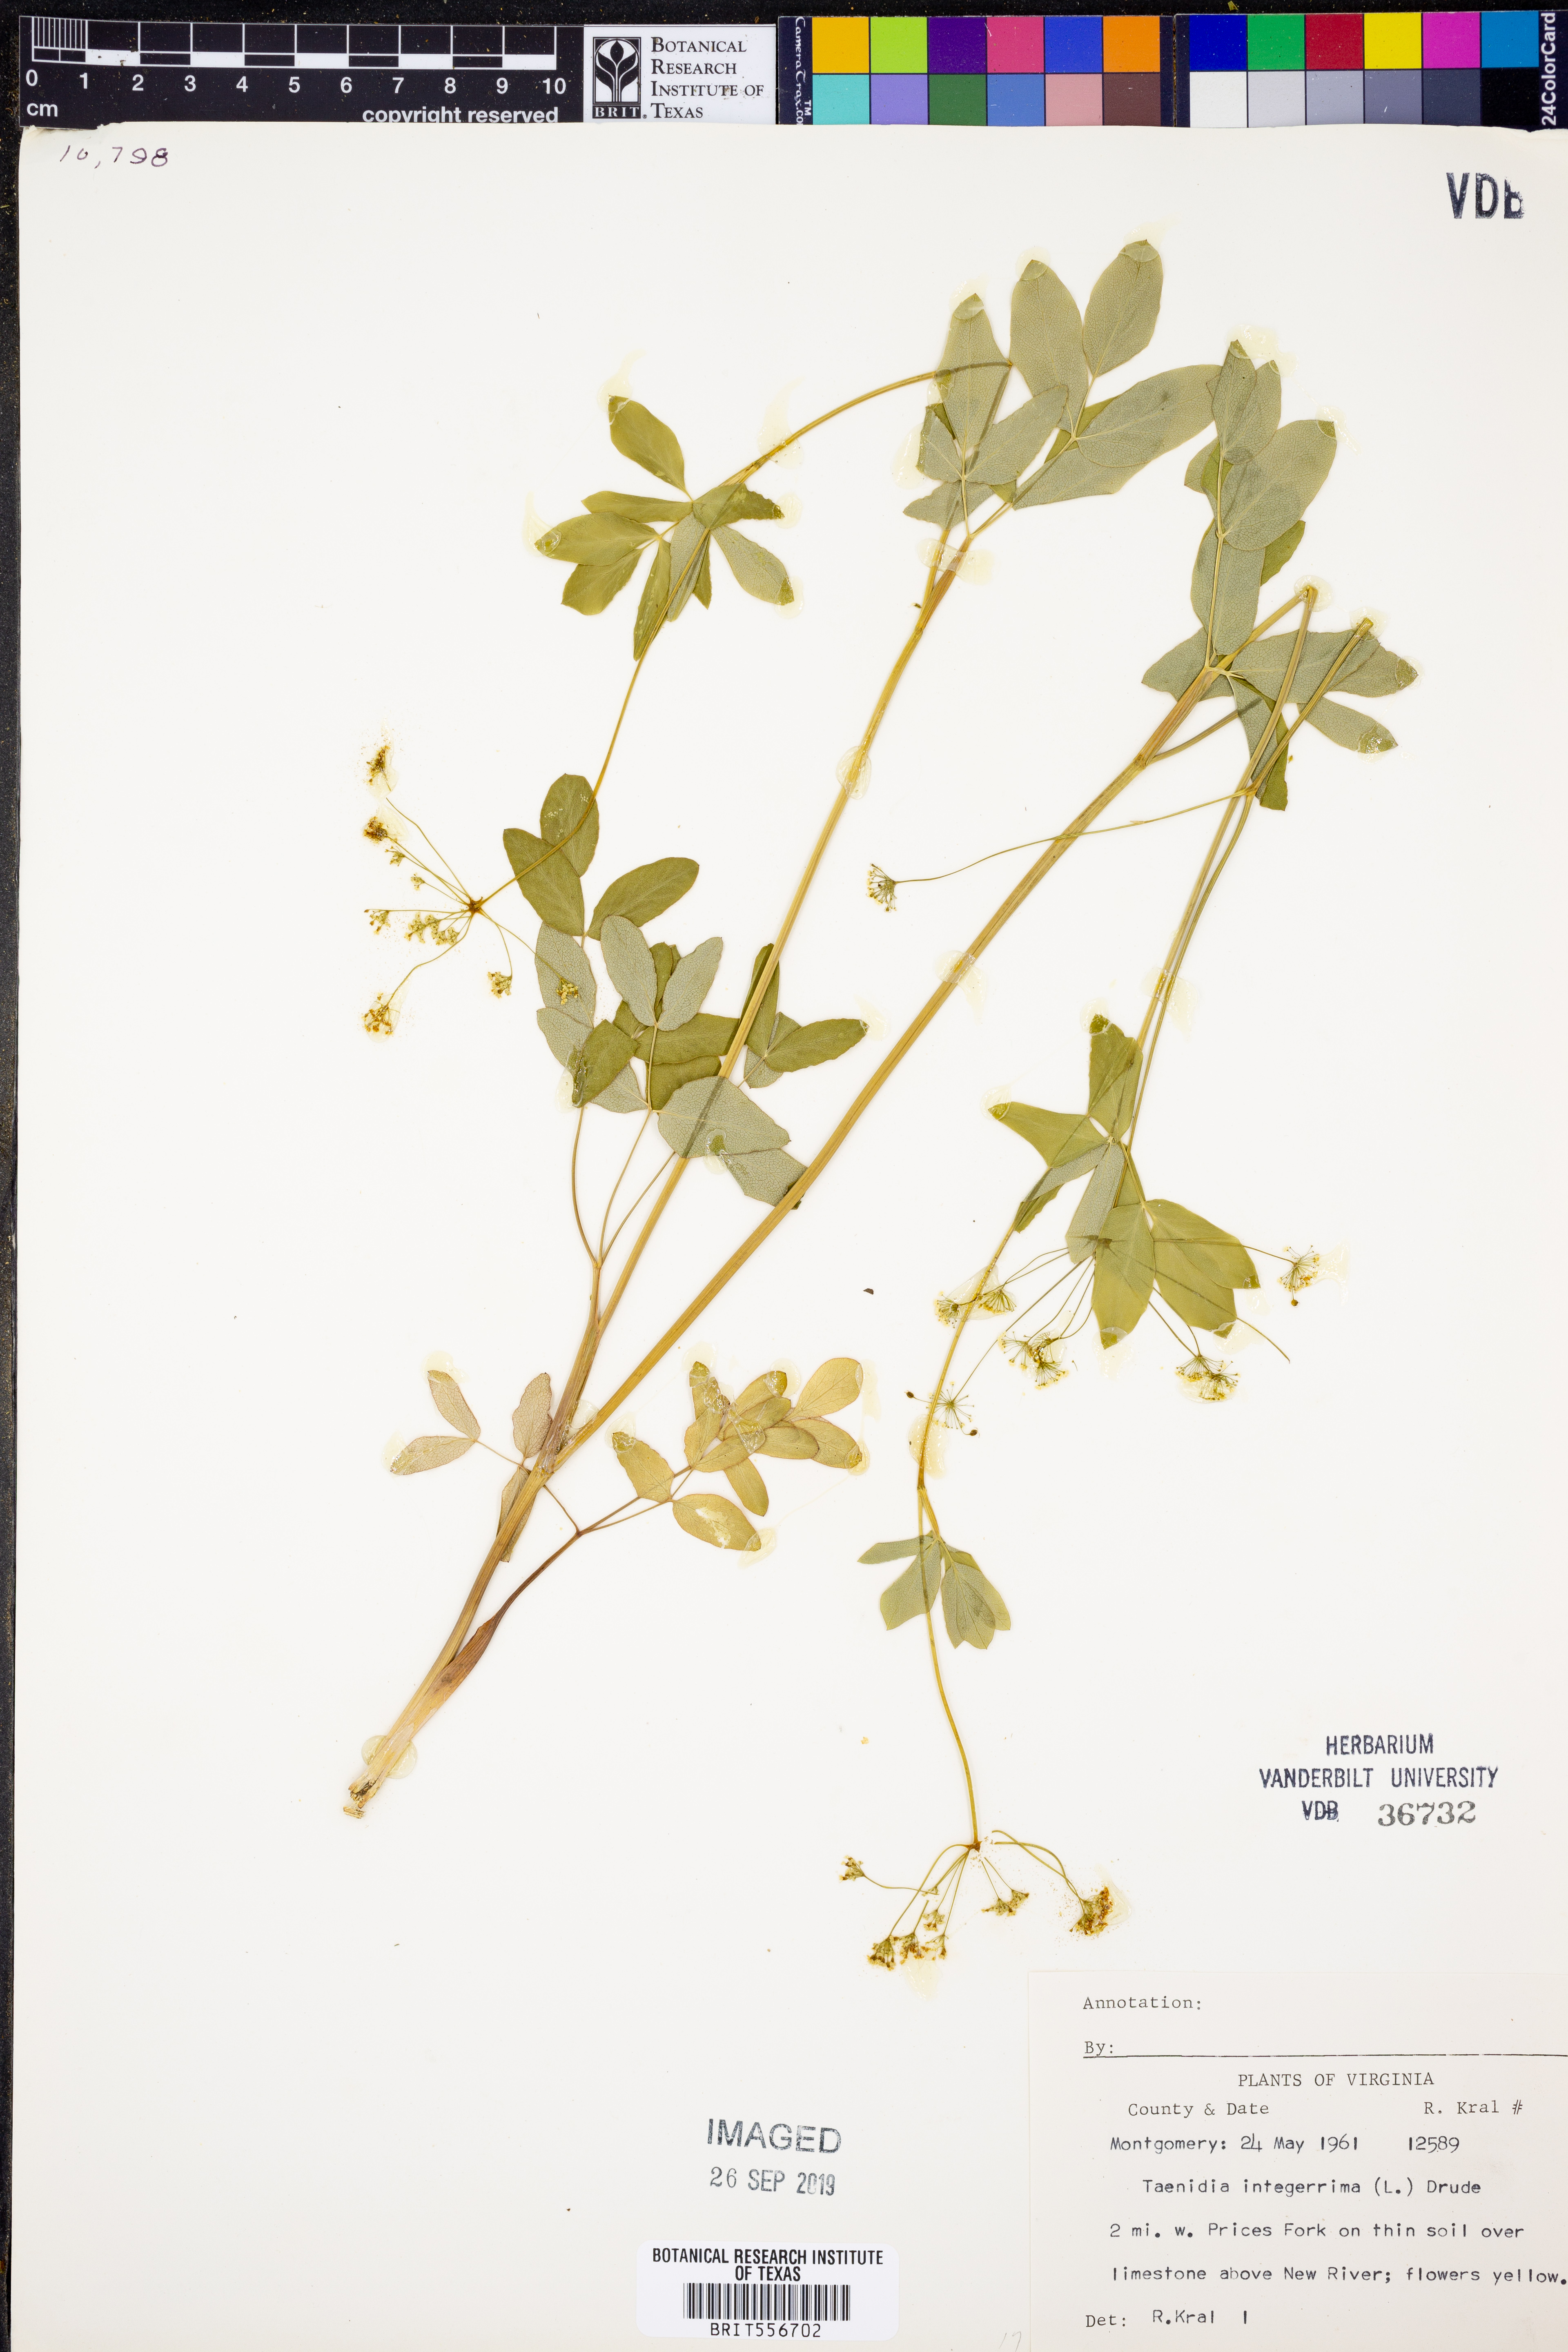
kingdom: Plantae
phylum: Tracheophyta
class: Magnoliopsida
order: Apiales
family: Apiaceae
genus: Taenidia
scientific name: Taenidia integerrima
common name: Golden alexander
